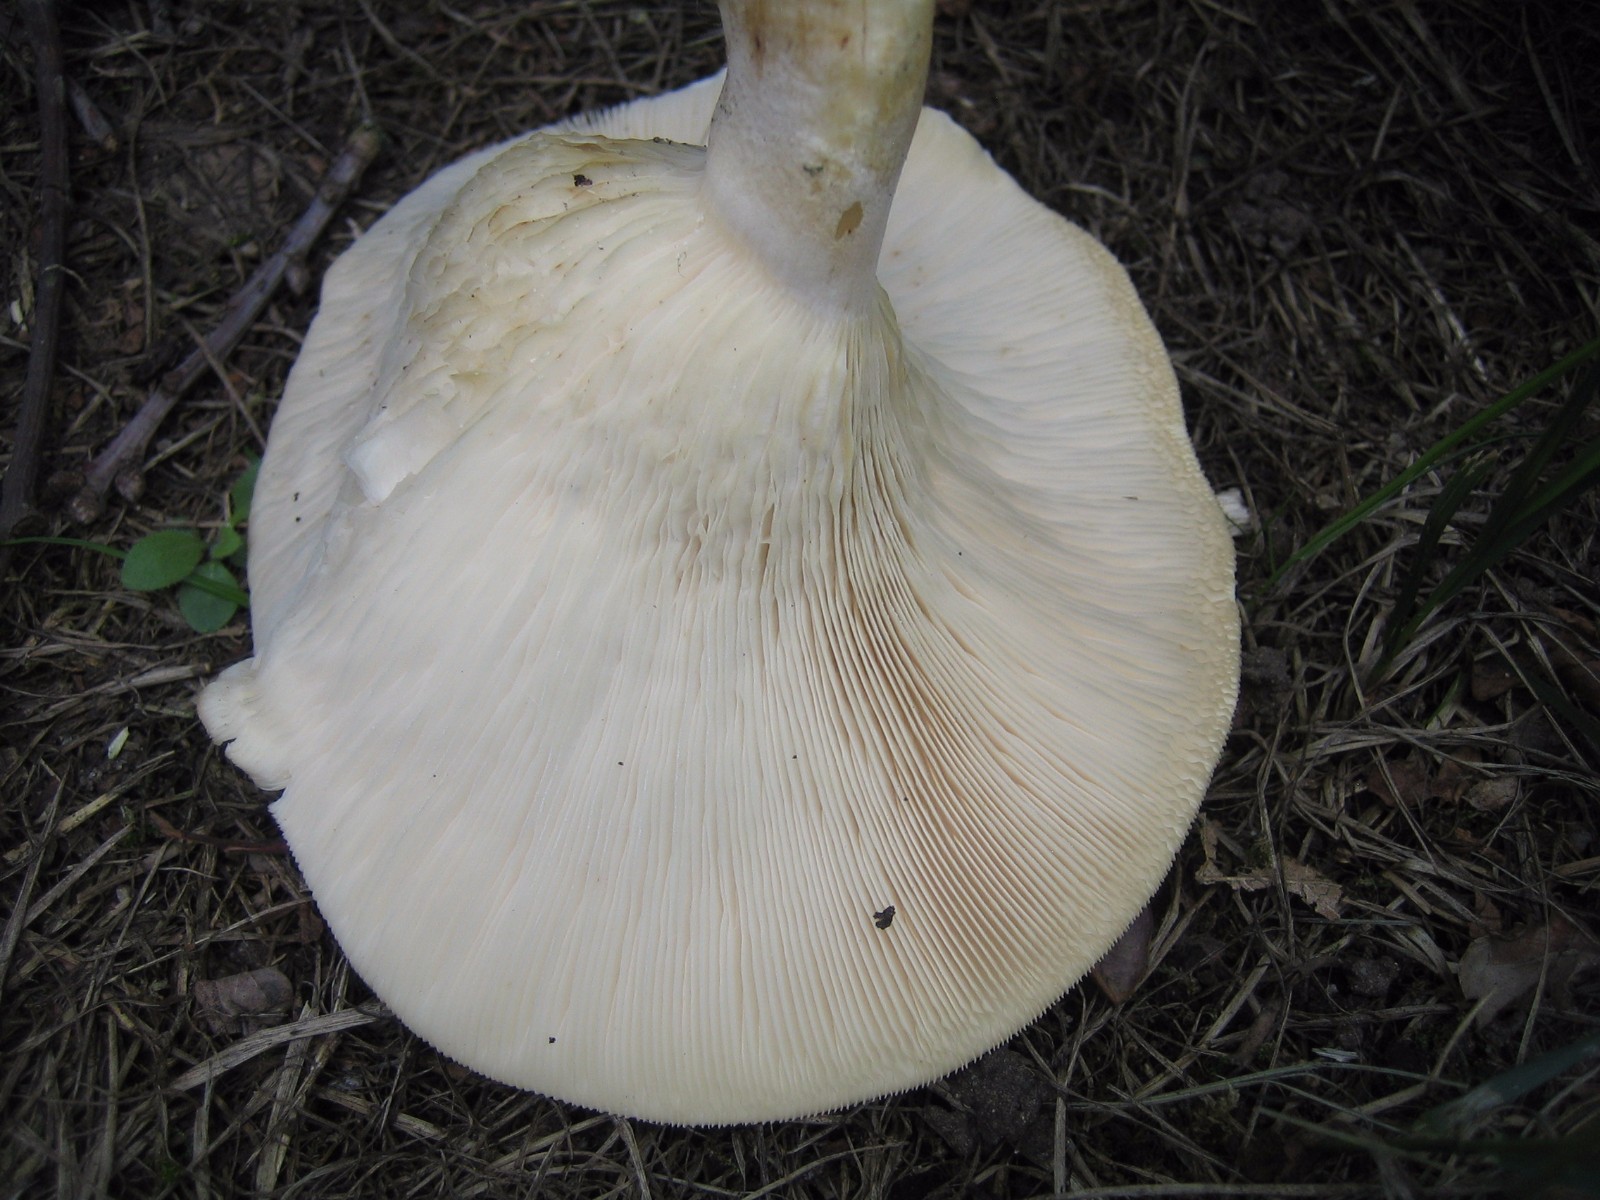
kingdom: Fungi
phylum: Basidiomycota
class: Agaricomycetes
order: Agaricales
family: Tricholomataceae
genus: Aspropaxillus
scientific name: Aspropaxillus giganteus
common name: kæmpe-tragtridderhat
